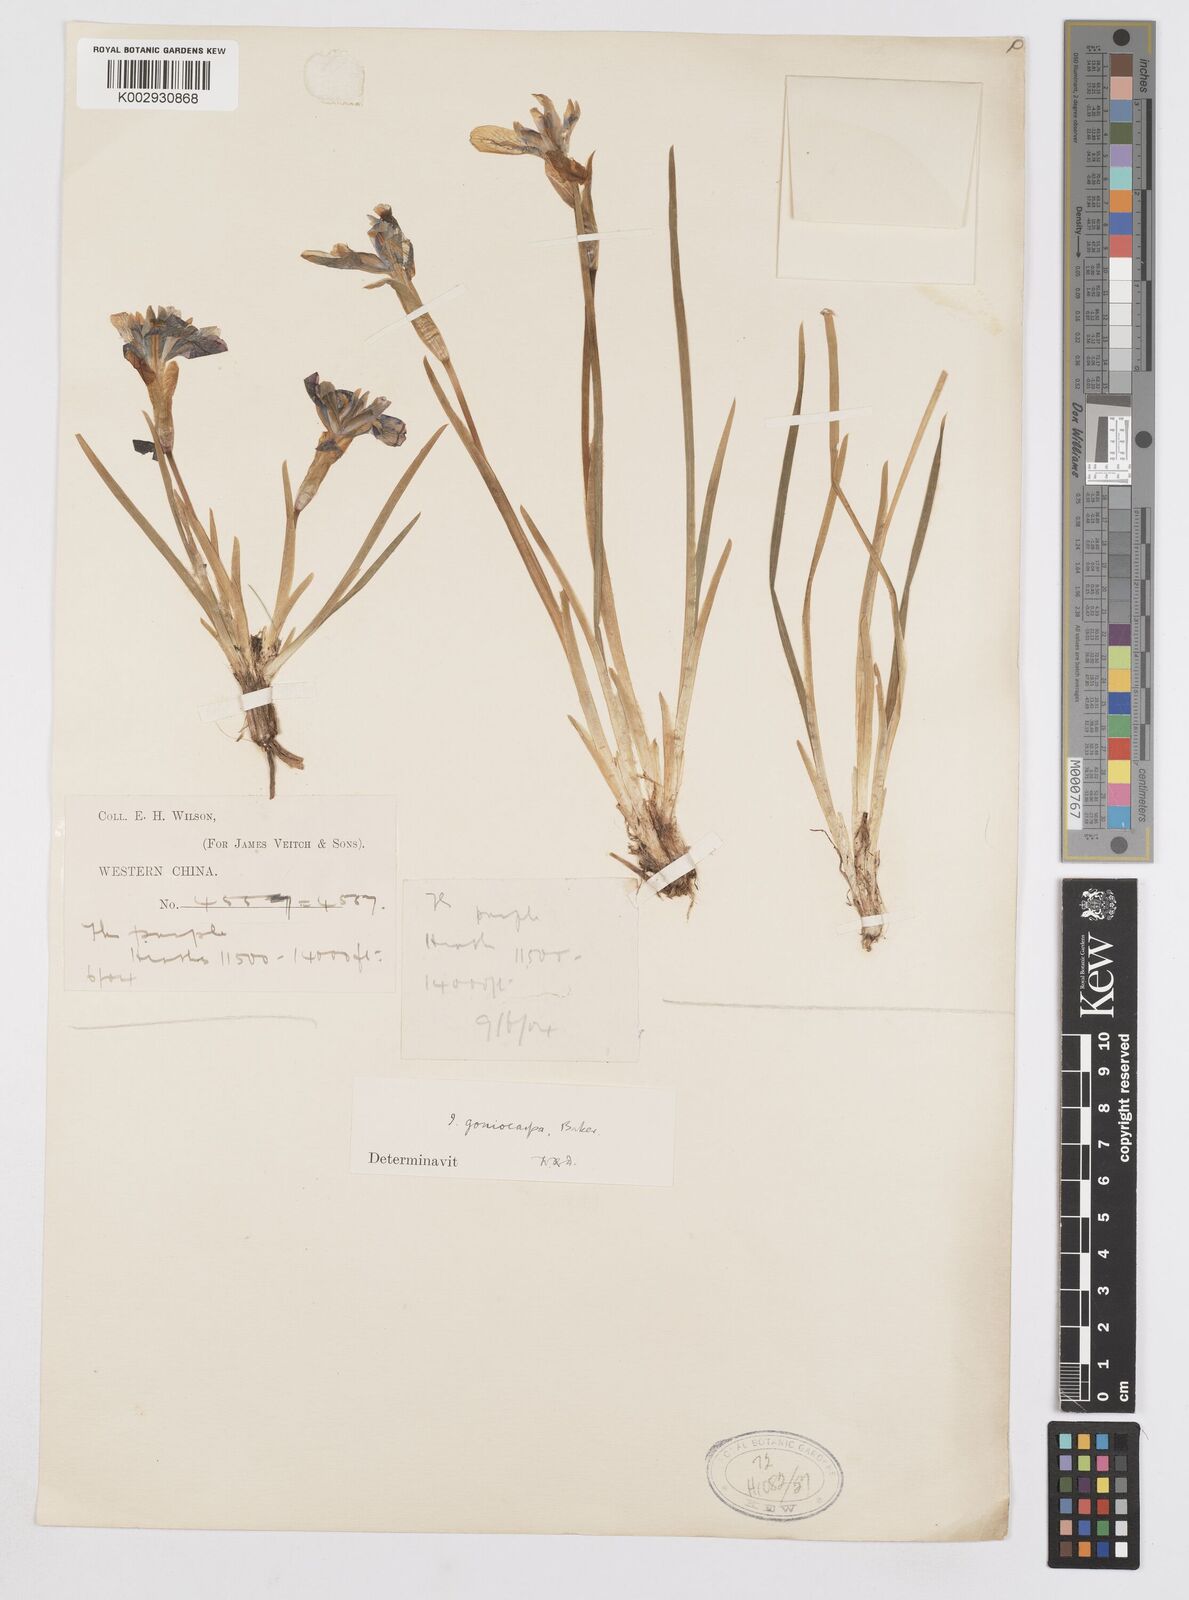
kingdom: Plantae
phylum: Tracheophyta
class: Liliopsida
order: Asparagales
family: Iridaceae
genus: Iris
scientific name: Iris goniocarpa
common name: Angular-fruit iris
